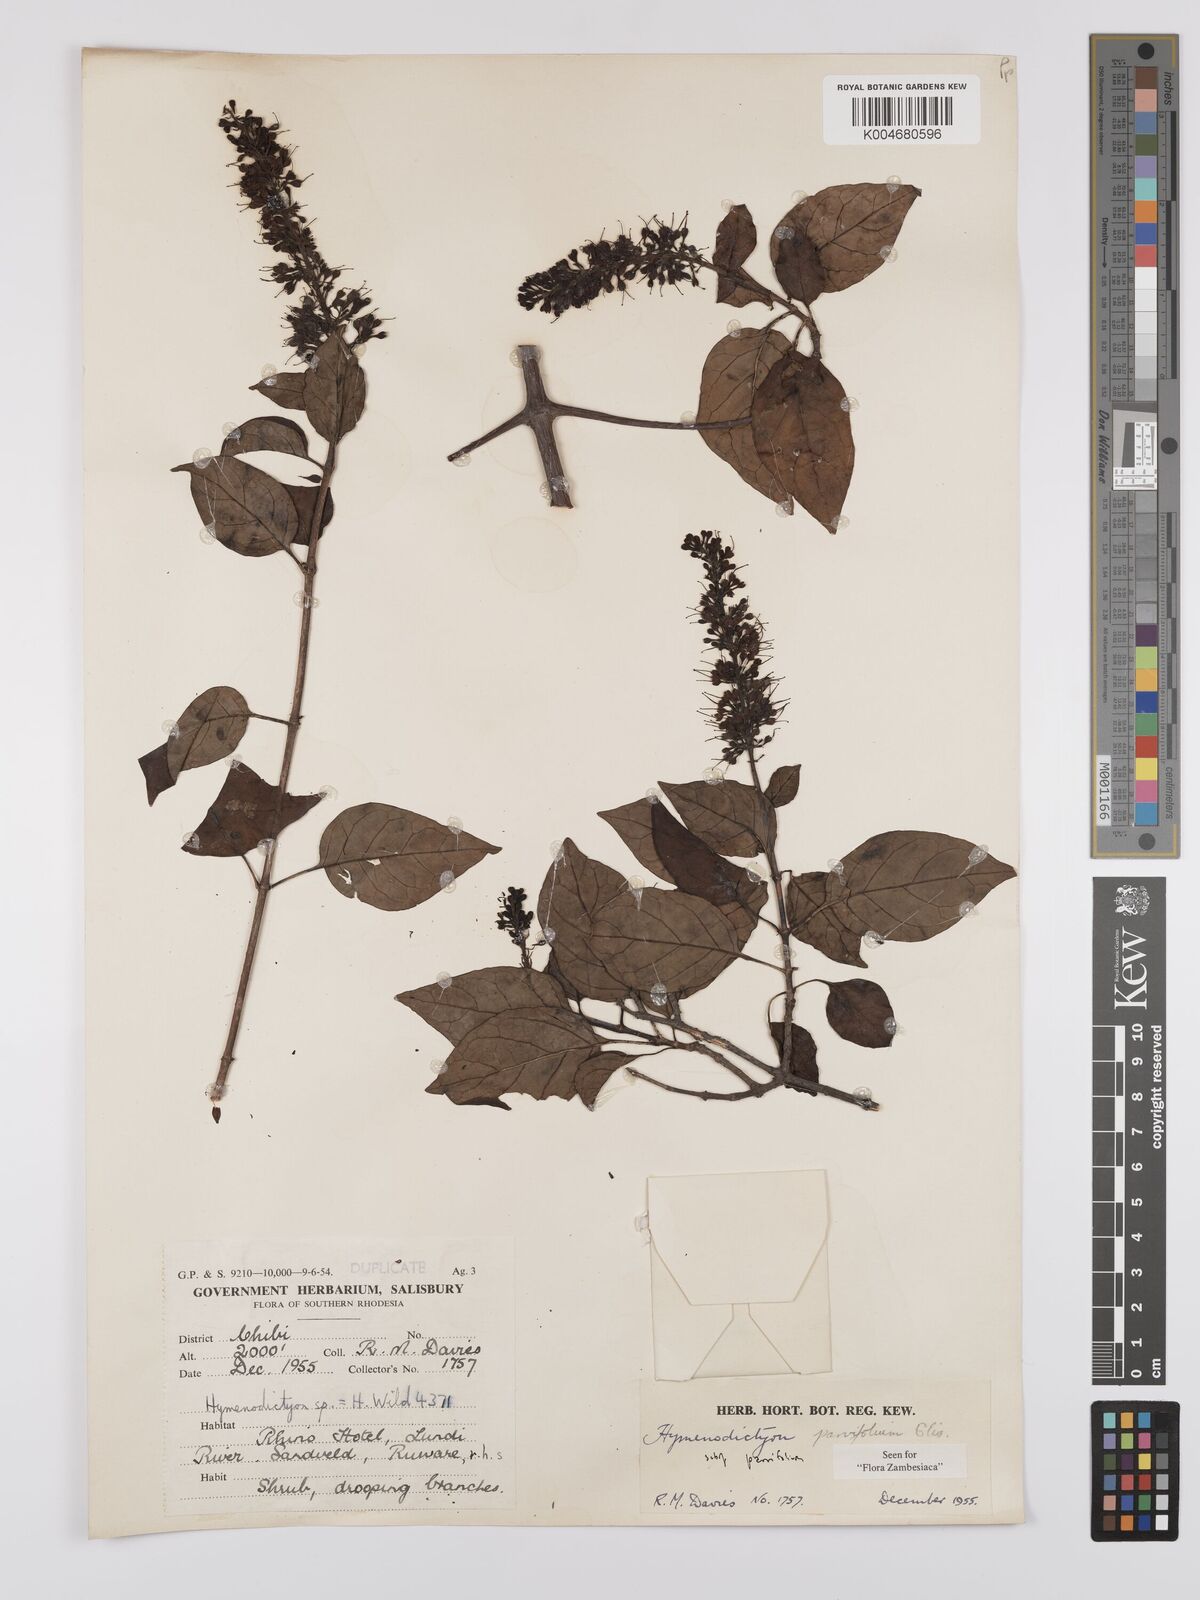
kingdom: Plantae
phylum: Tracheophyta
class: Magnoliopsida
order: Gentianales
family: Rubiaceae
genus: Hymenodictyon
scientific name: Hymenodictyon parvifolium
